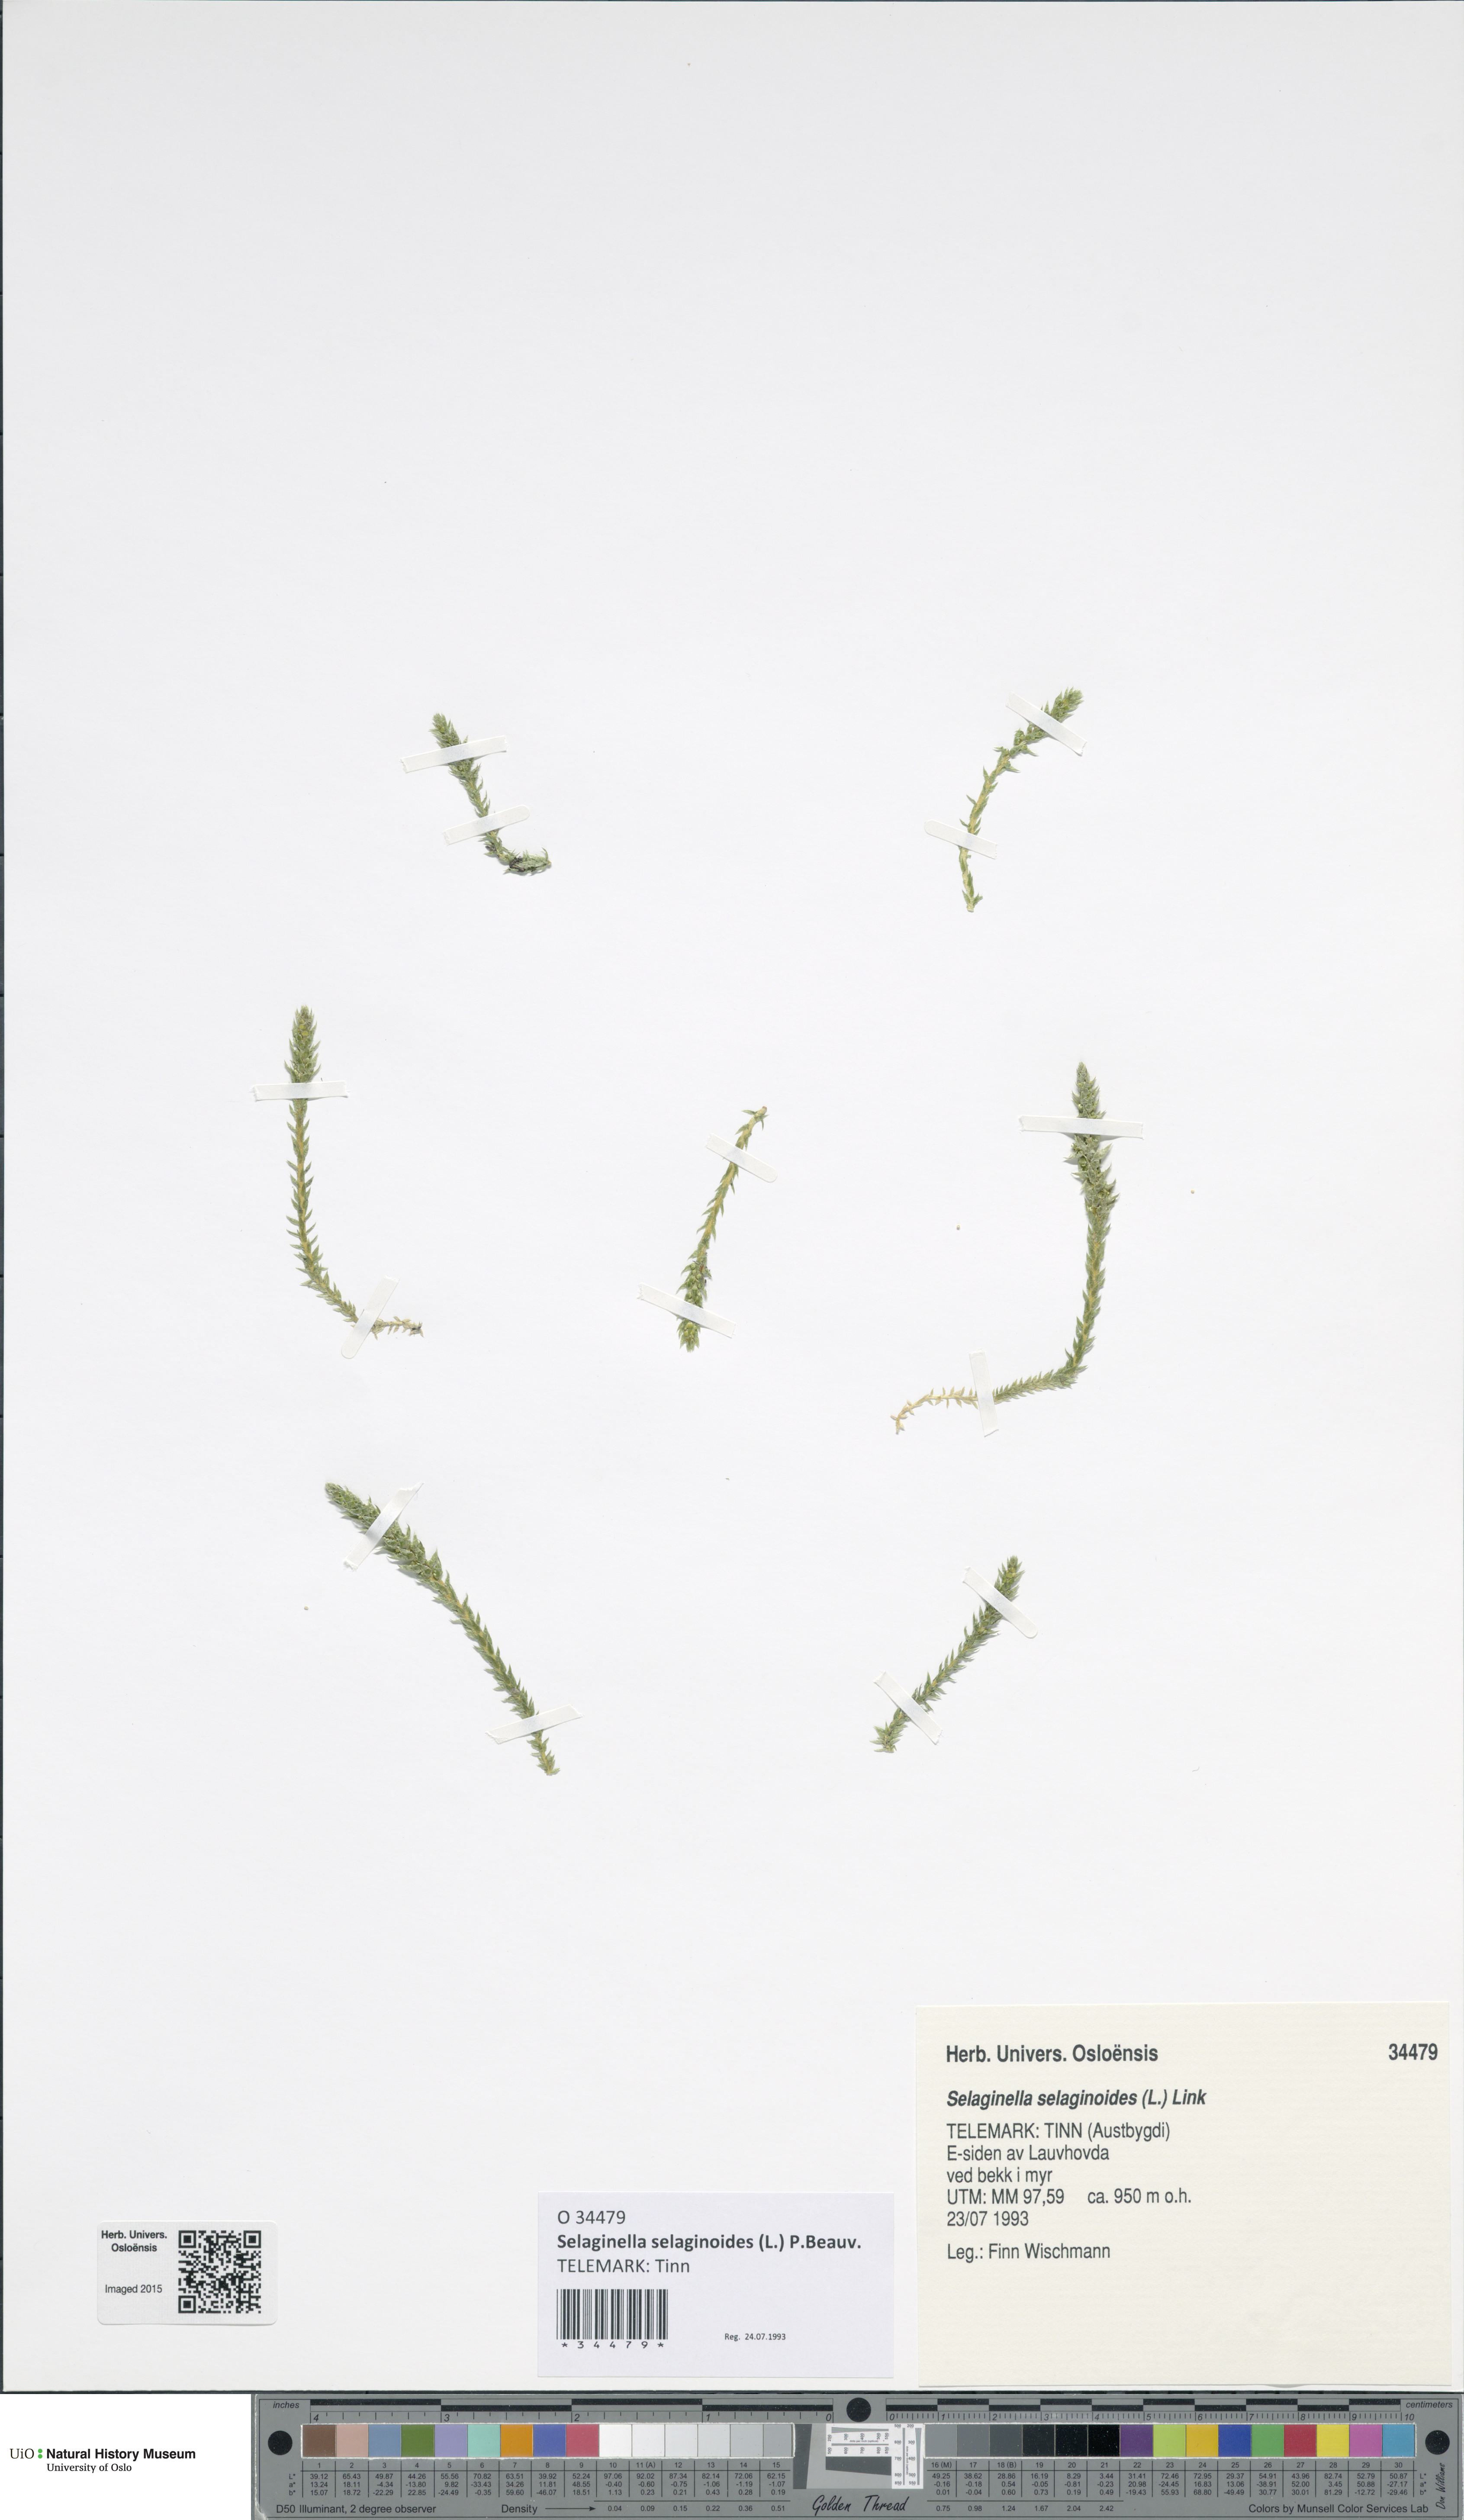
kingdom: Plantae
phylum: Tracheophyta
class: Lycopodiopsida
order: Selaginellales
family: Selaginellaceae
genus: Selaginella
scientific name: Selaginella selaginoides
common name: Prickly mountain-moss
